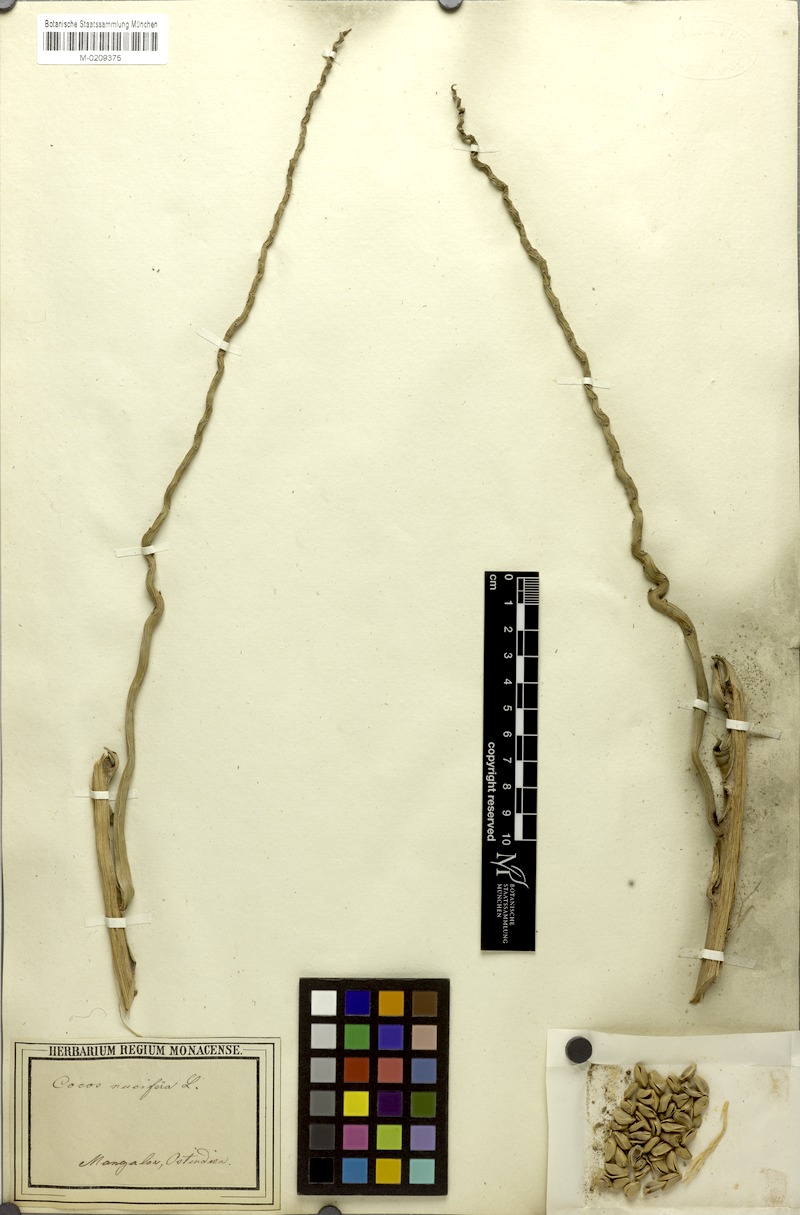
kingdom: Plantae
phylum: Tracheophyta
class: Liliopsida
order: Arecales
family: Arecaceae
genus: Cocos
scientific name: Cocos nucifera
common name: Coconut palm
